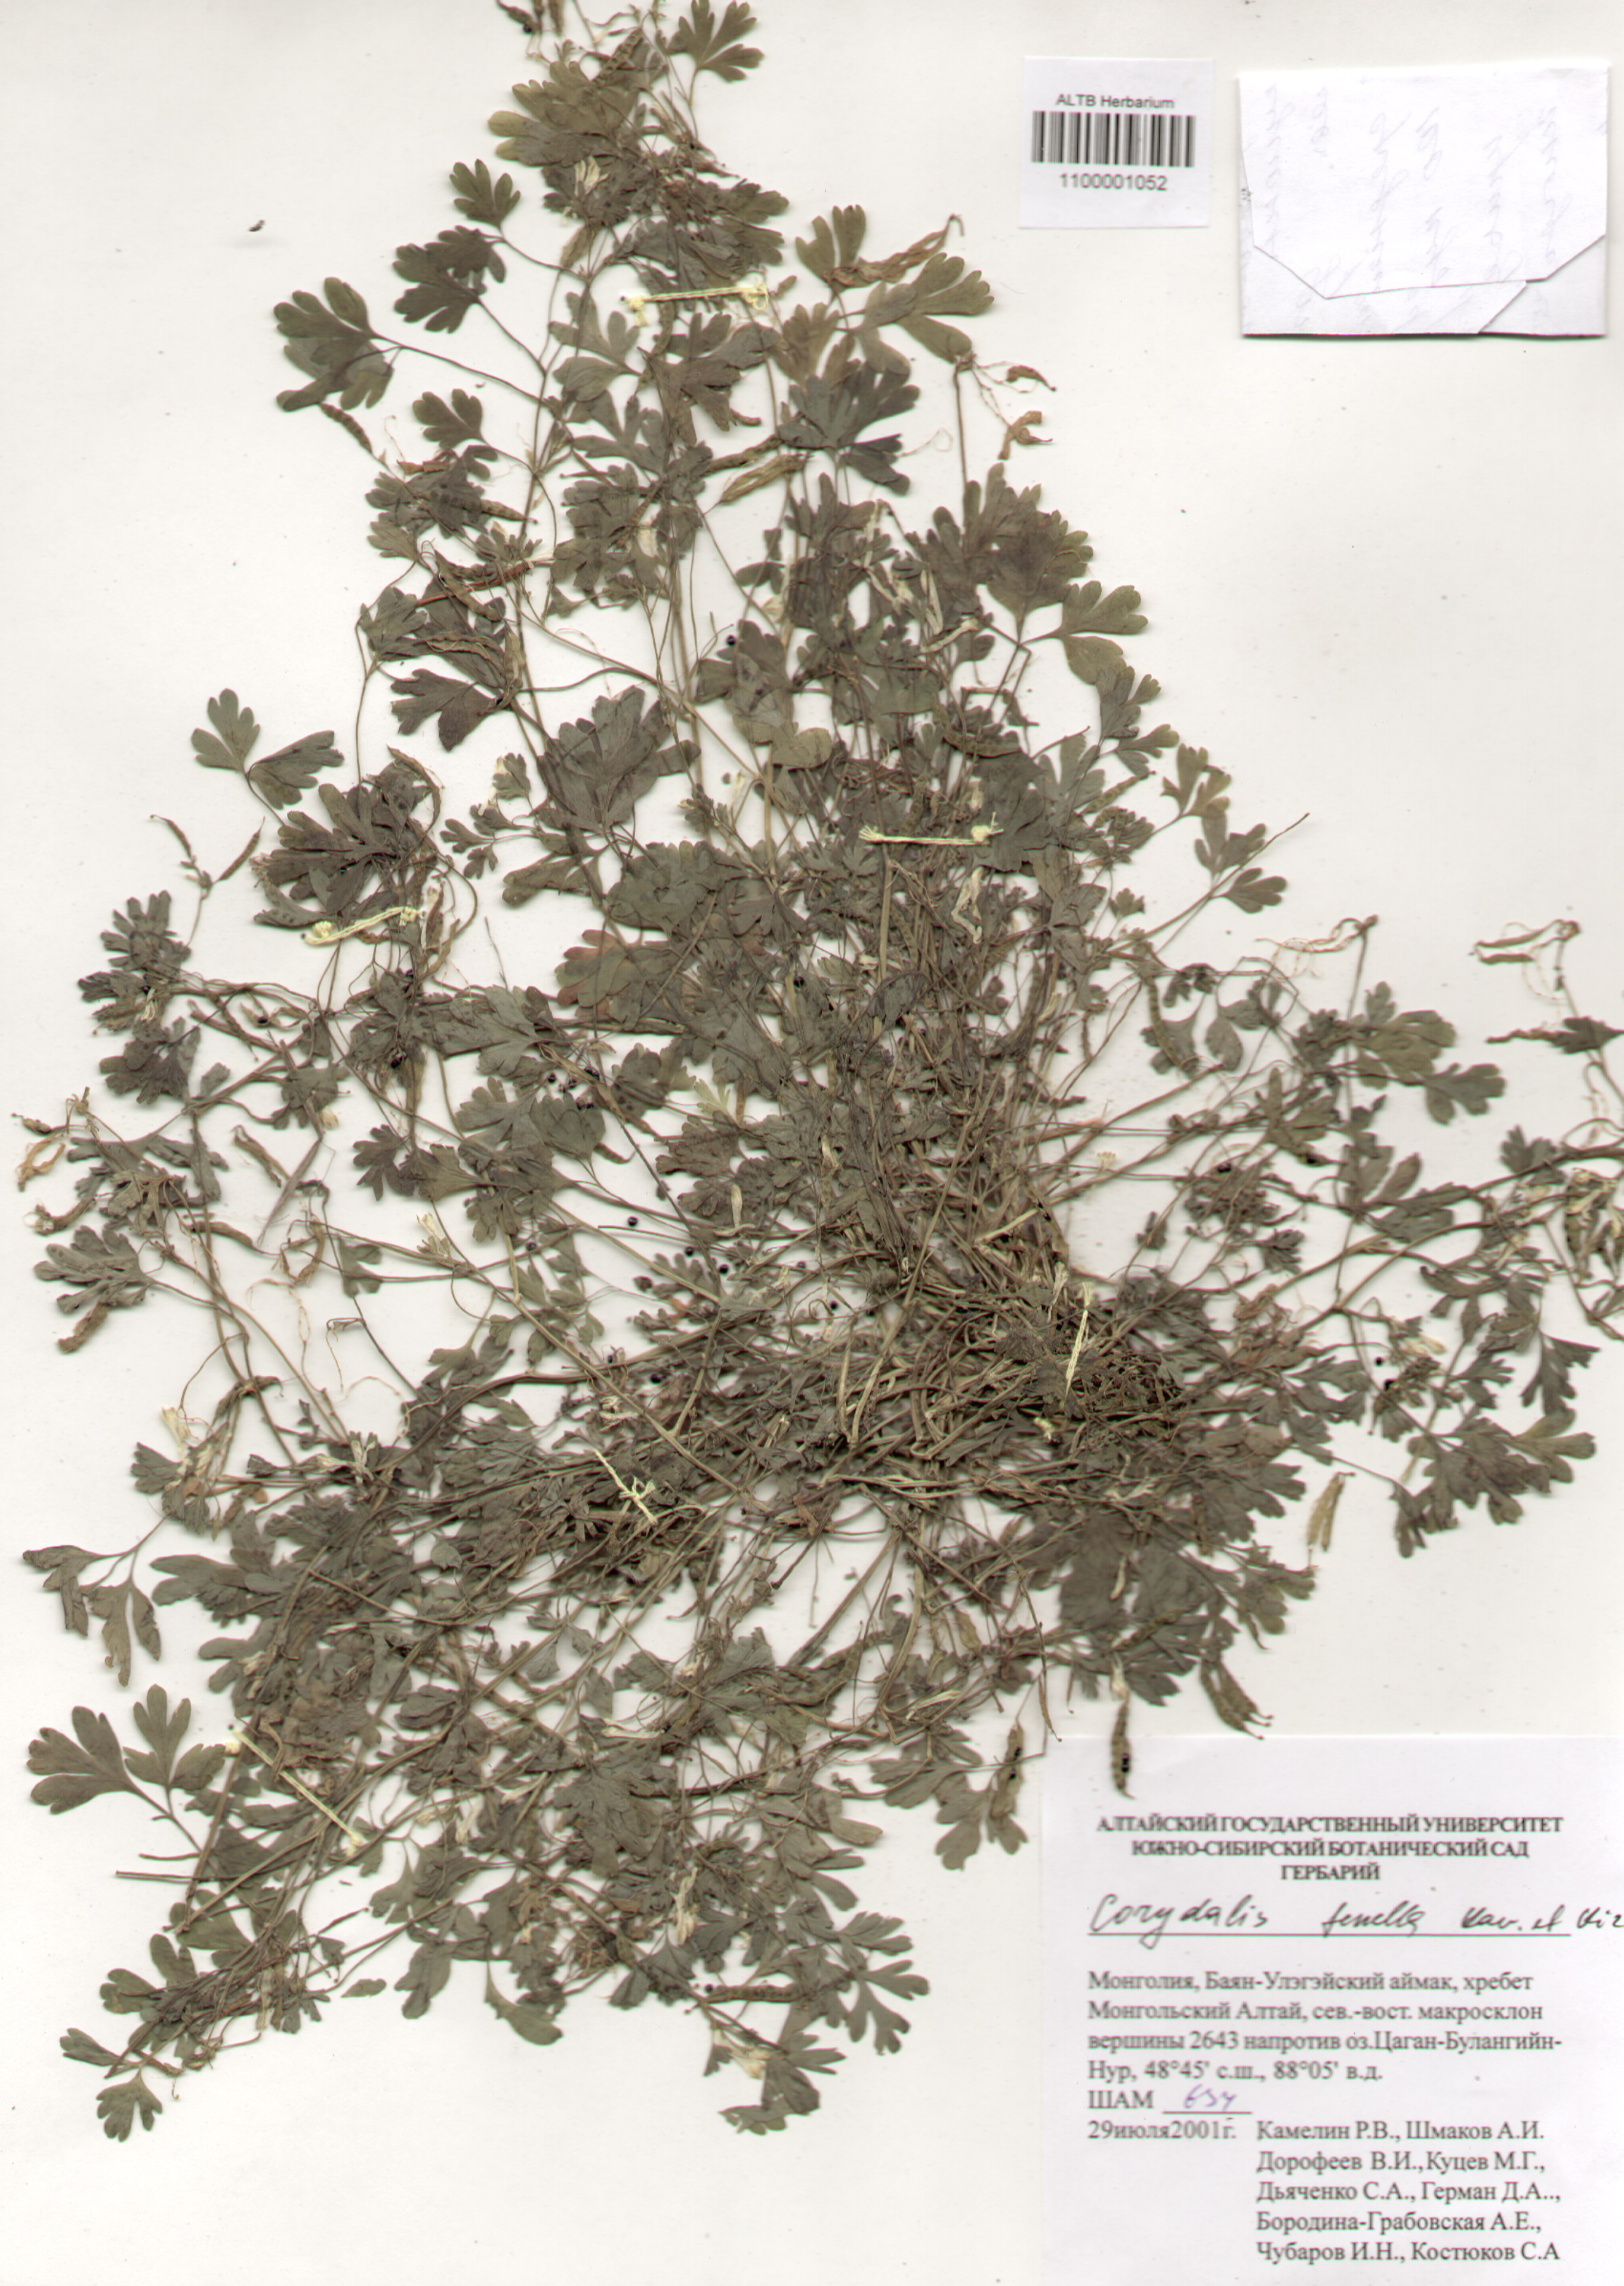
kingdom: Plantae
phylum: Tracheophyta
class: Magnoliopsida
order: Ranunculales
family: Papaveraceae
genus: Corydalis
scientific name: Corydalis inconspicua
